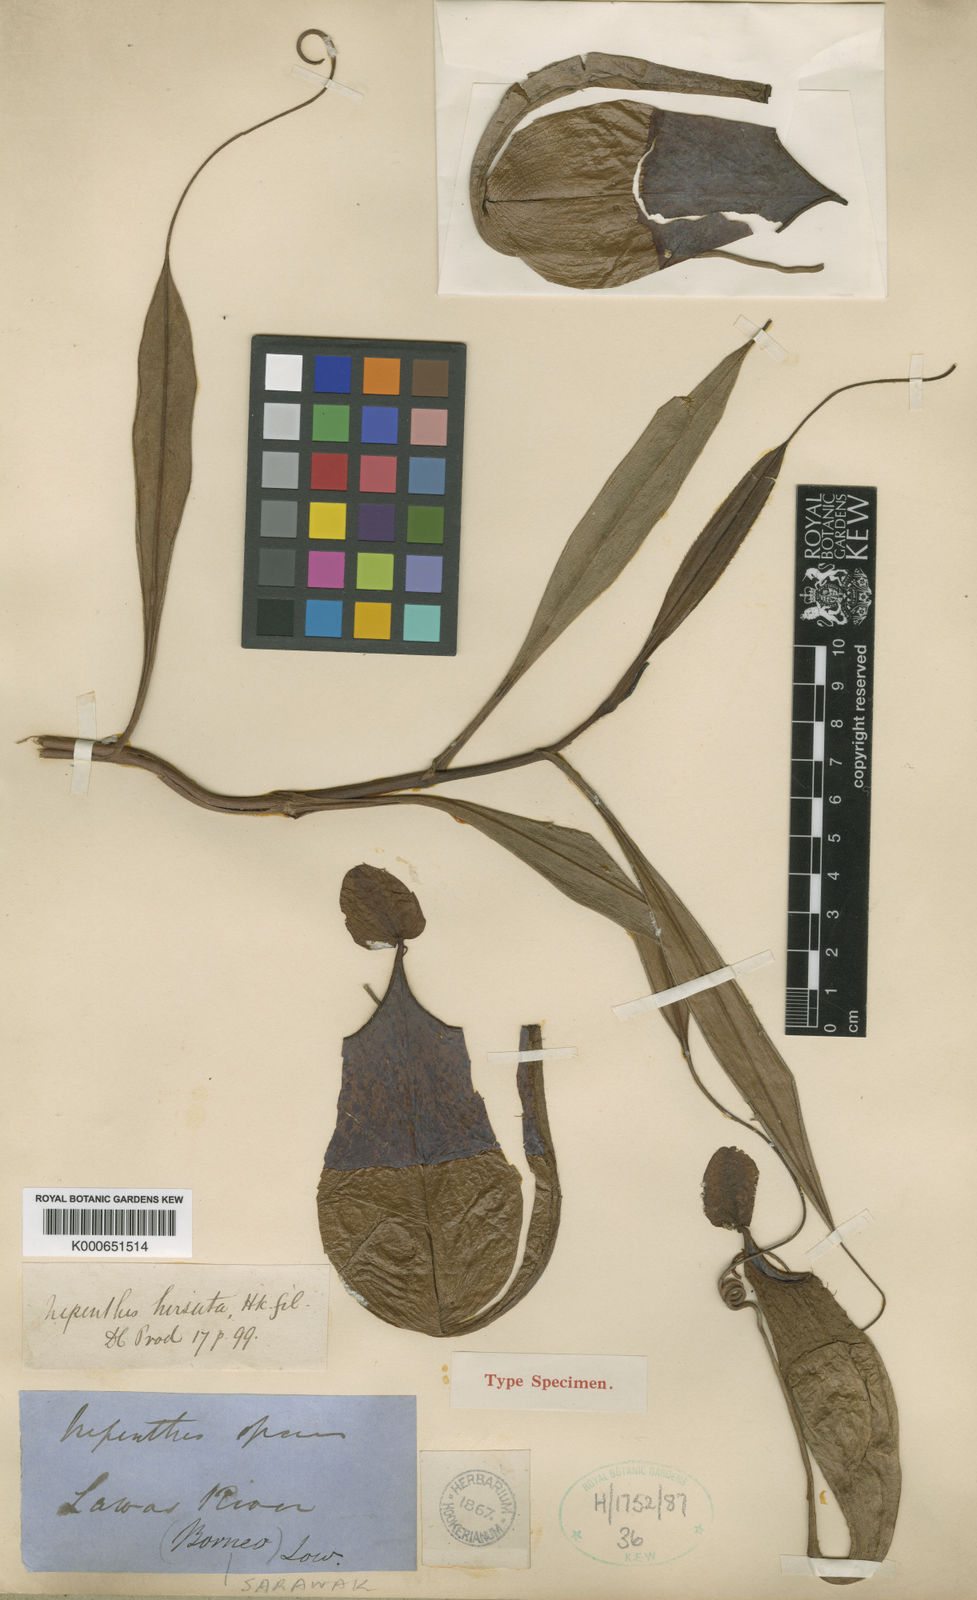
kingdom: Plantae
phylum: Tracheophyta
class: Magnoliopsida
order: Caryophyllales
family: Nepenthaceae
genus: Nepenthes
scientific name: Nepenthes hirsuta
